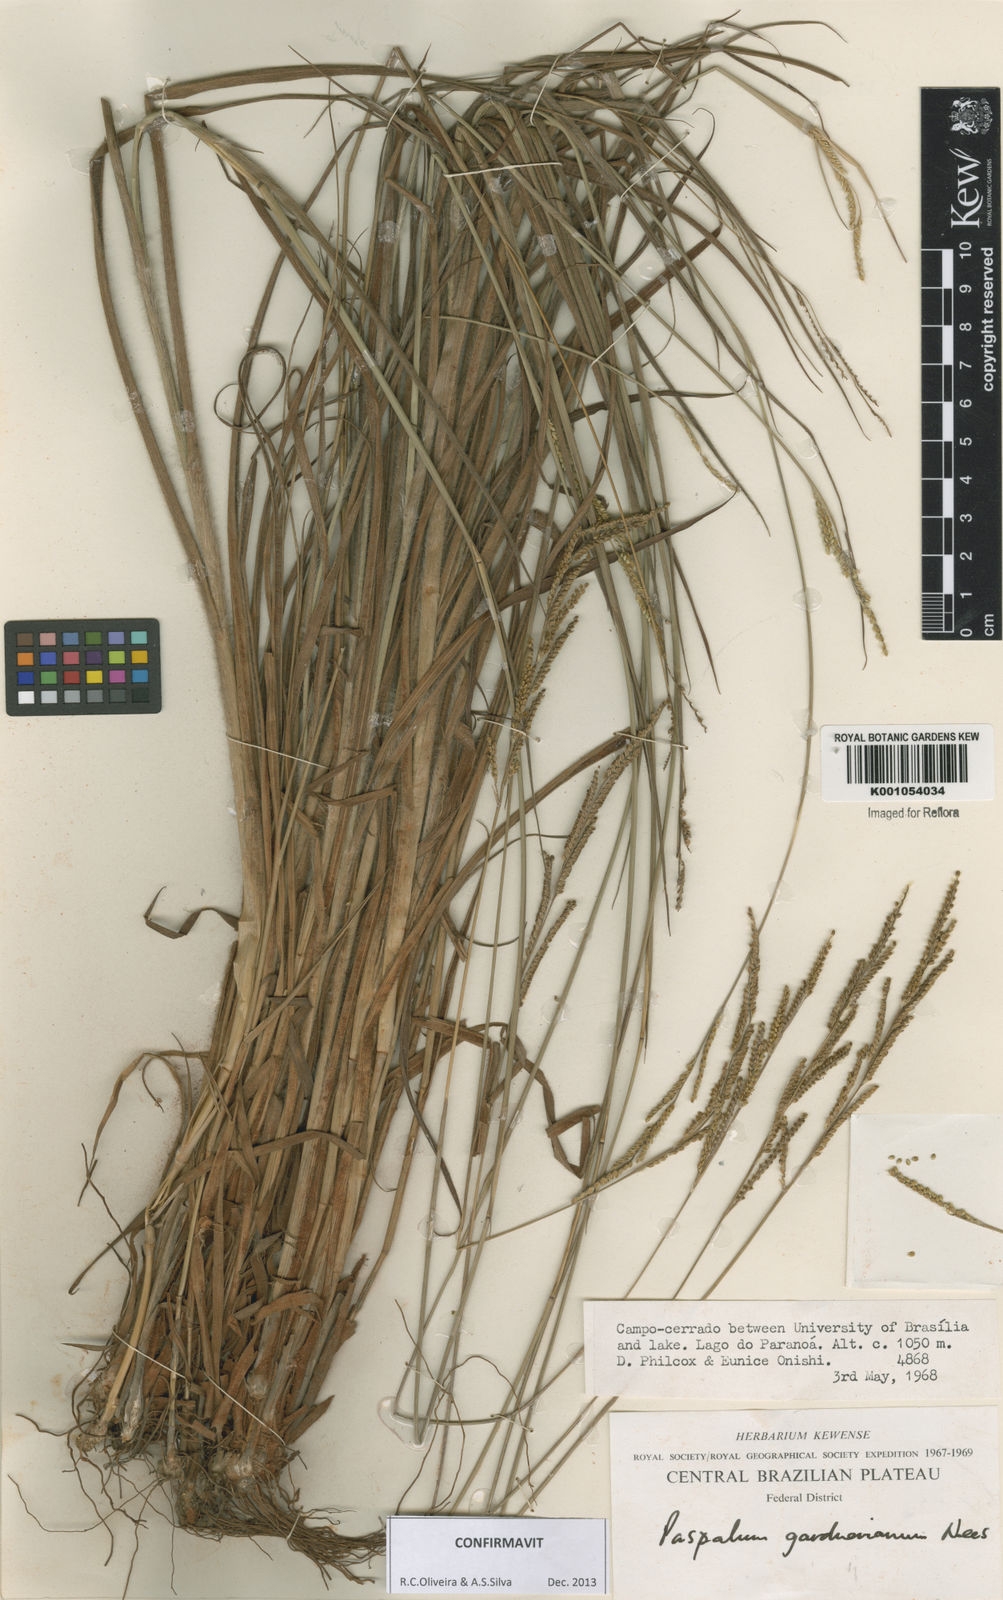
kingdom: Plantae
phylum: Tracheophyta
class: Liliopsida
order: Poales
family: Poaceae
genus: Paspalum
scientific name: Paspalum gardnerianum
